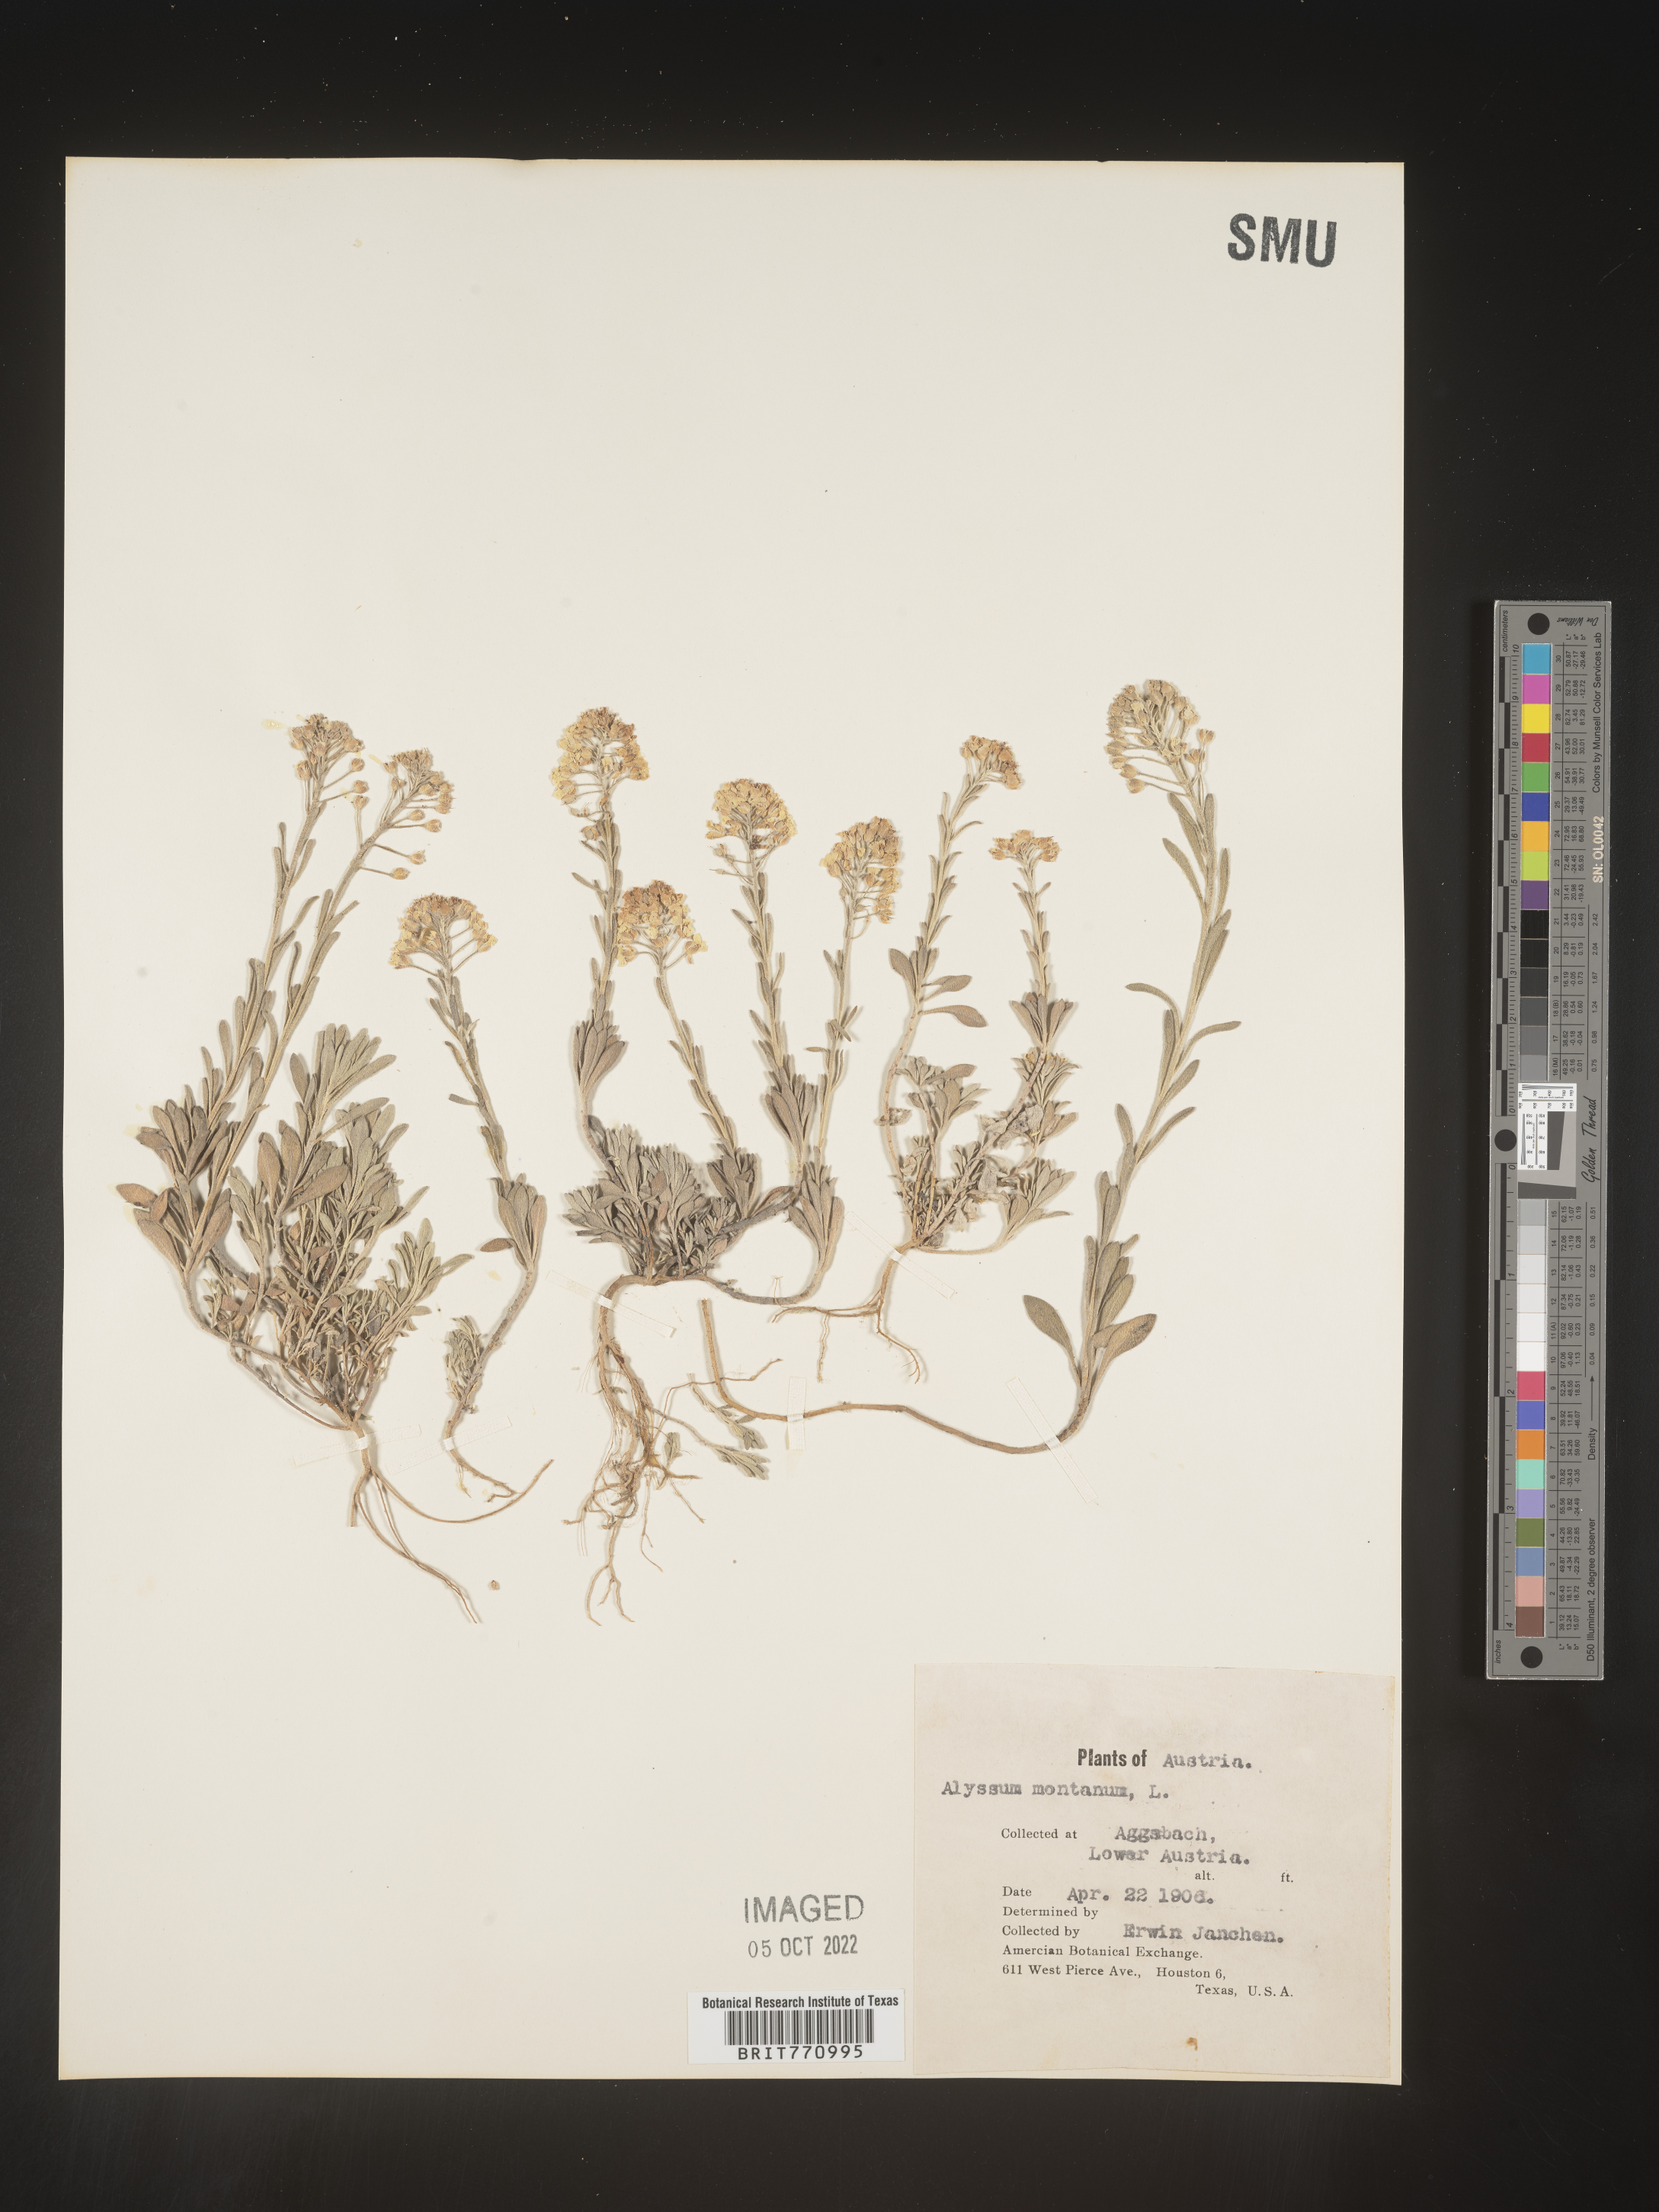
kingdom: Plantae
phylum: Tracheophyta
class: Magnoliopsida
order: Brassicales
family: Brassicaceae
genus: Alyssum
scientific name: Alyssum
